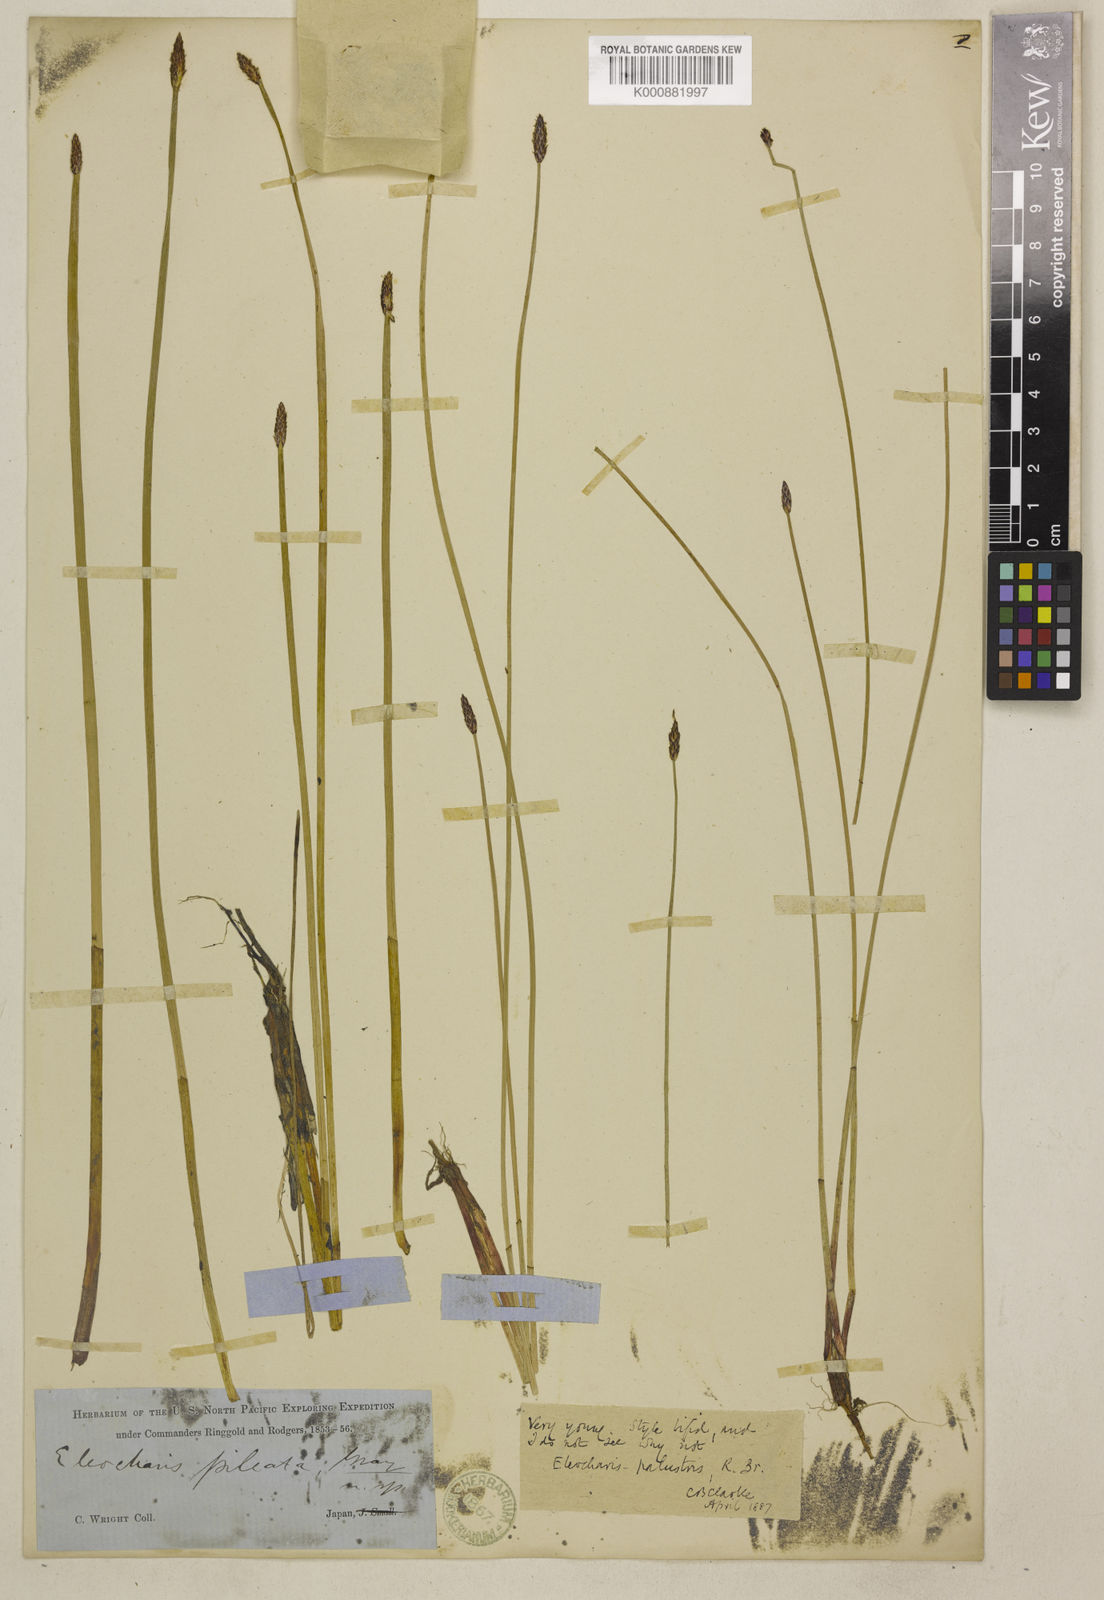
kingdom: Plantae
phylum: Tracheophyta
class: Liliopsida
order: Poales
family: Cyperaceae
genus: Eleocharis
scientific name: Eleocharis palustris
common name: Common spike-rush
